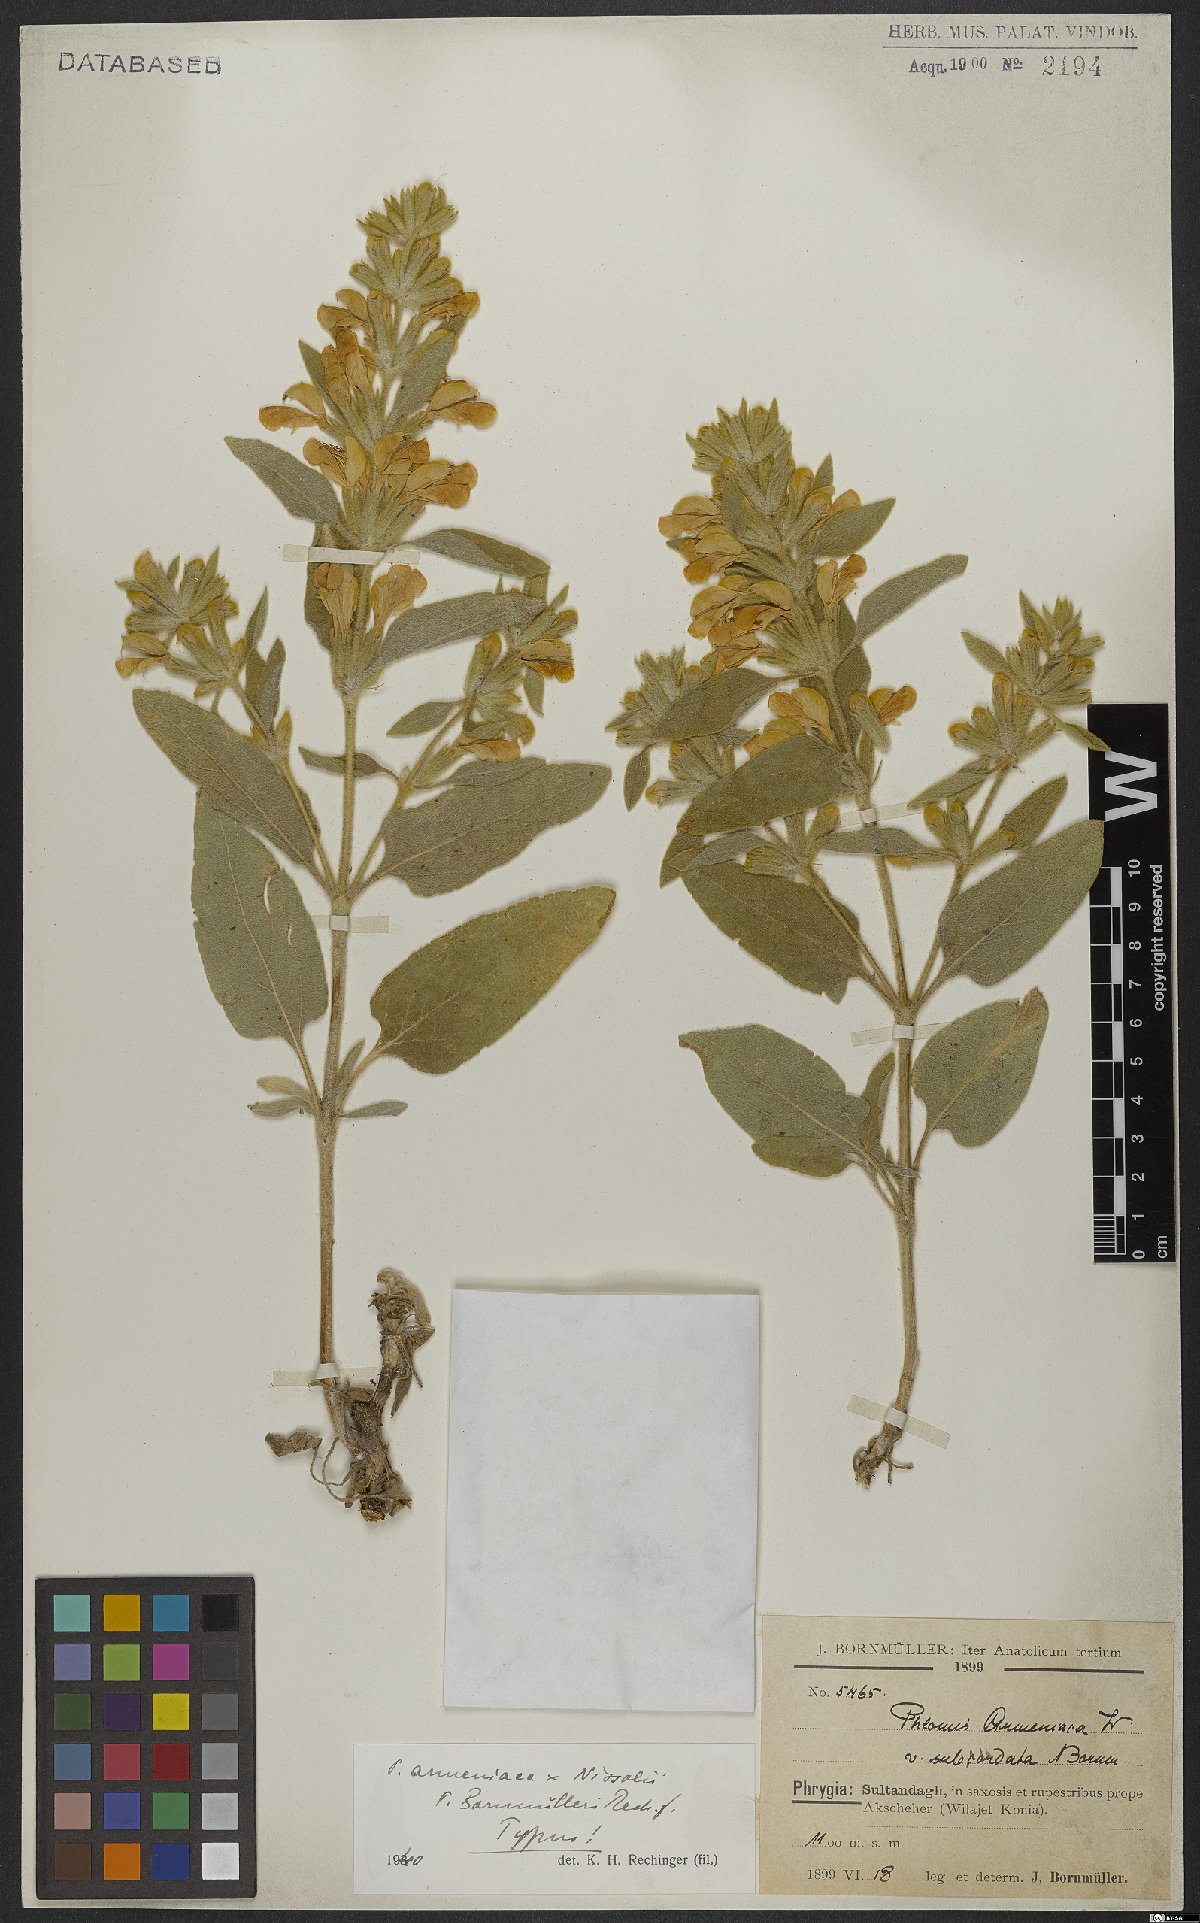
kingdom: Plantae
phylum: Tracheophyta
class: Magnoliopsida
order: Lamiales
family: Lamiaceae
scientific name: Lamiaceae
